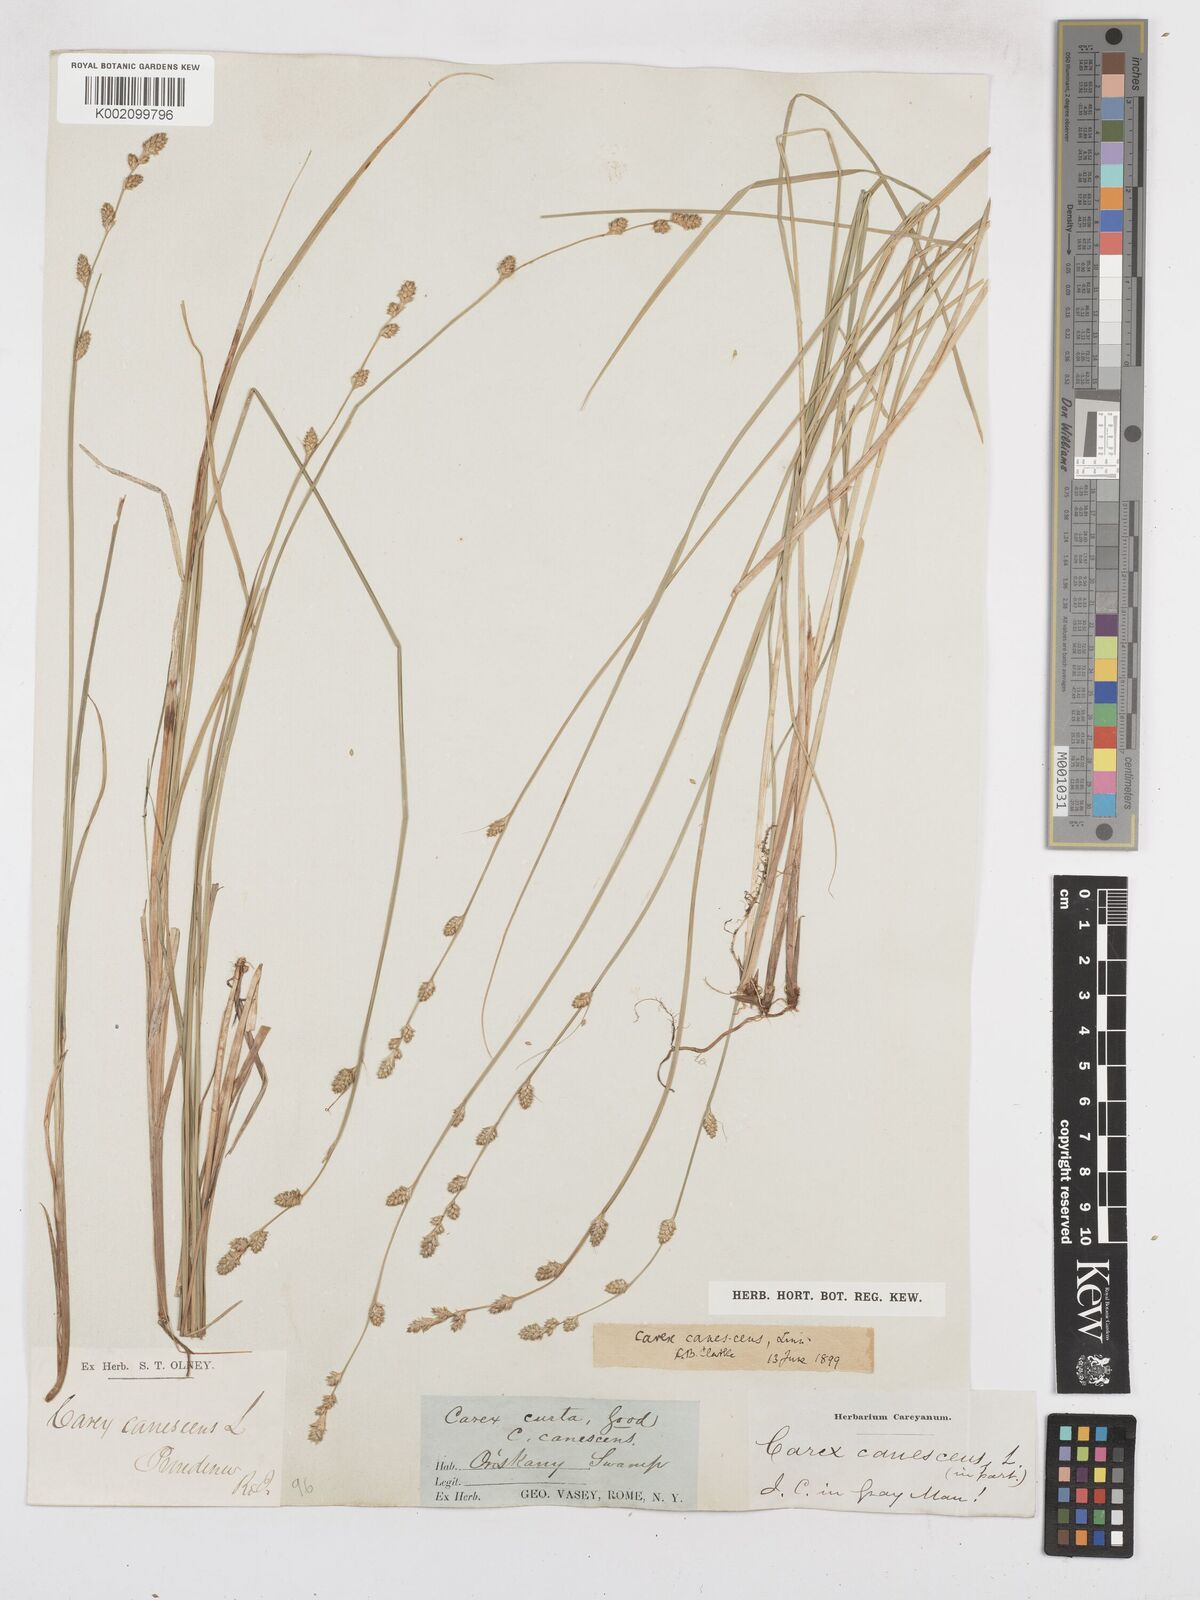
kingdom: Plantae
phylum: Tracheophyta
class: Liliopsida
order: Poales
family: Cyperaceae
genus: Carex
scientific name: Carex curta
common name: White sedge
